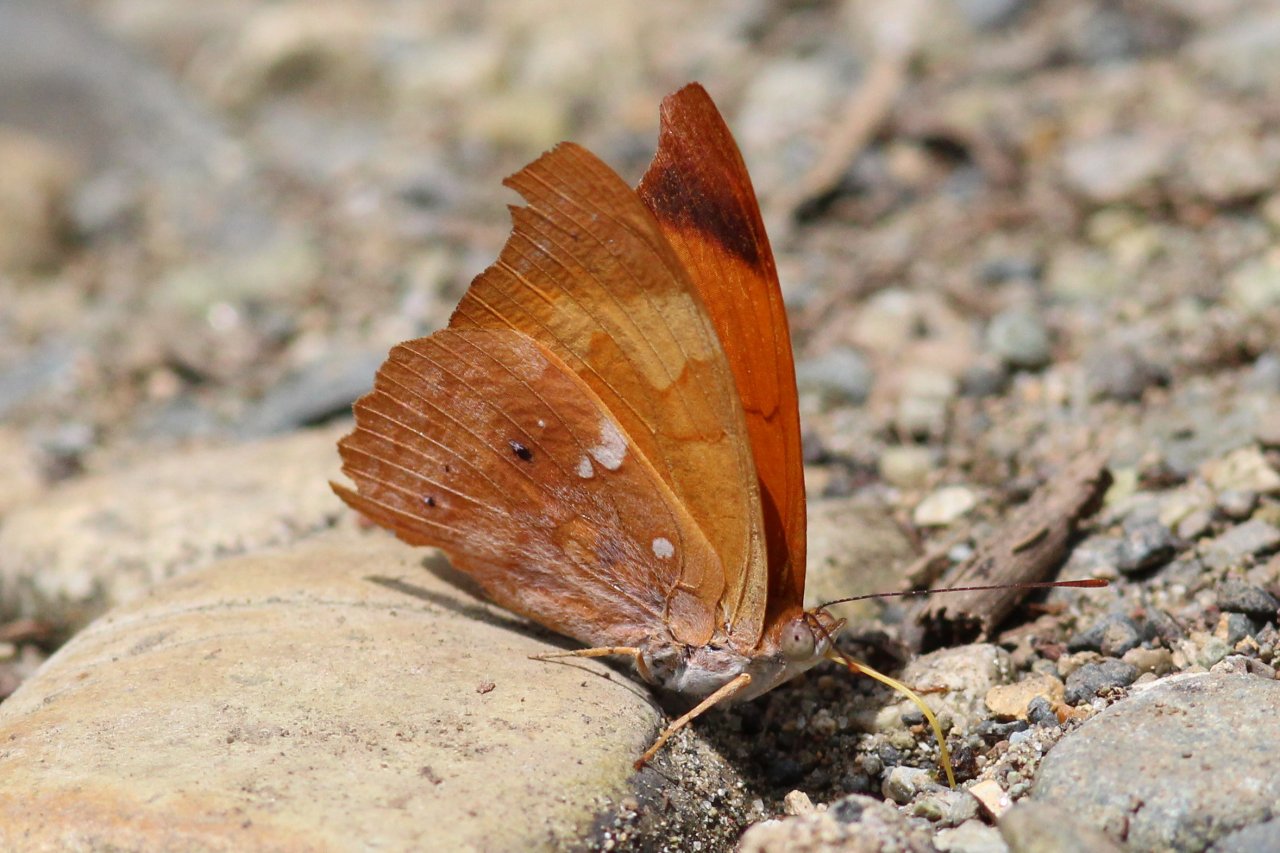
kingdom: Animalia
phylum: Arthropoda
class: Insecta
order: Lepidoptera
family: Nymphalidae
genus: Temenis
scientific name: Temenis laothoe
